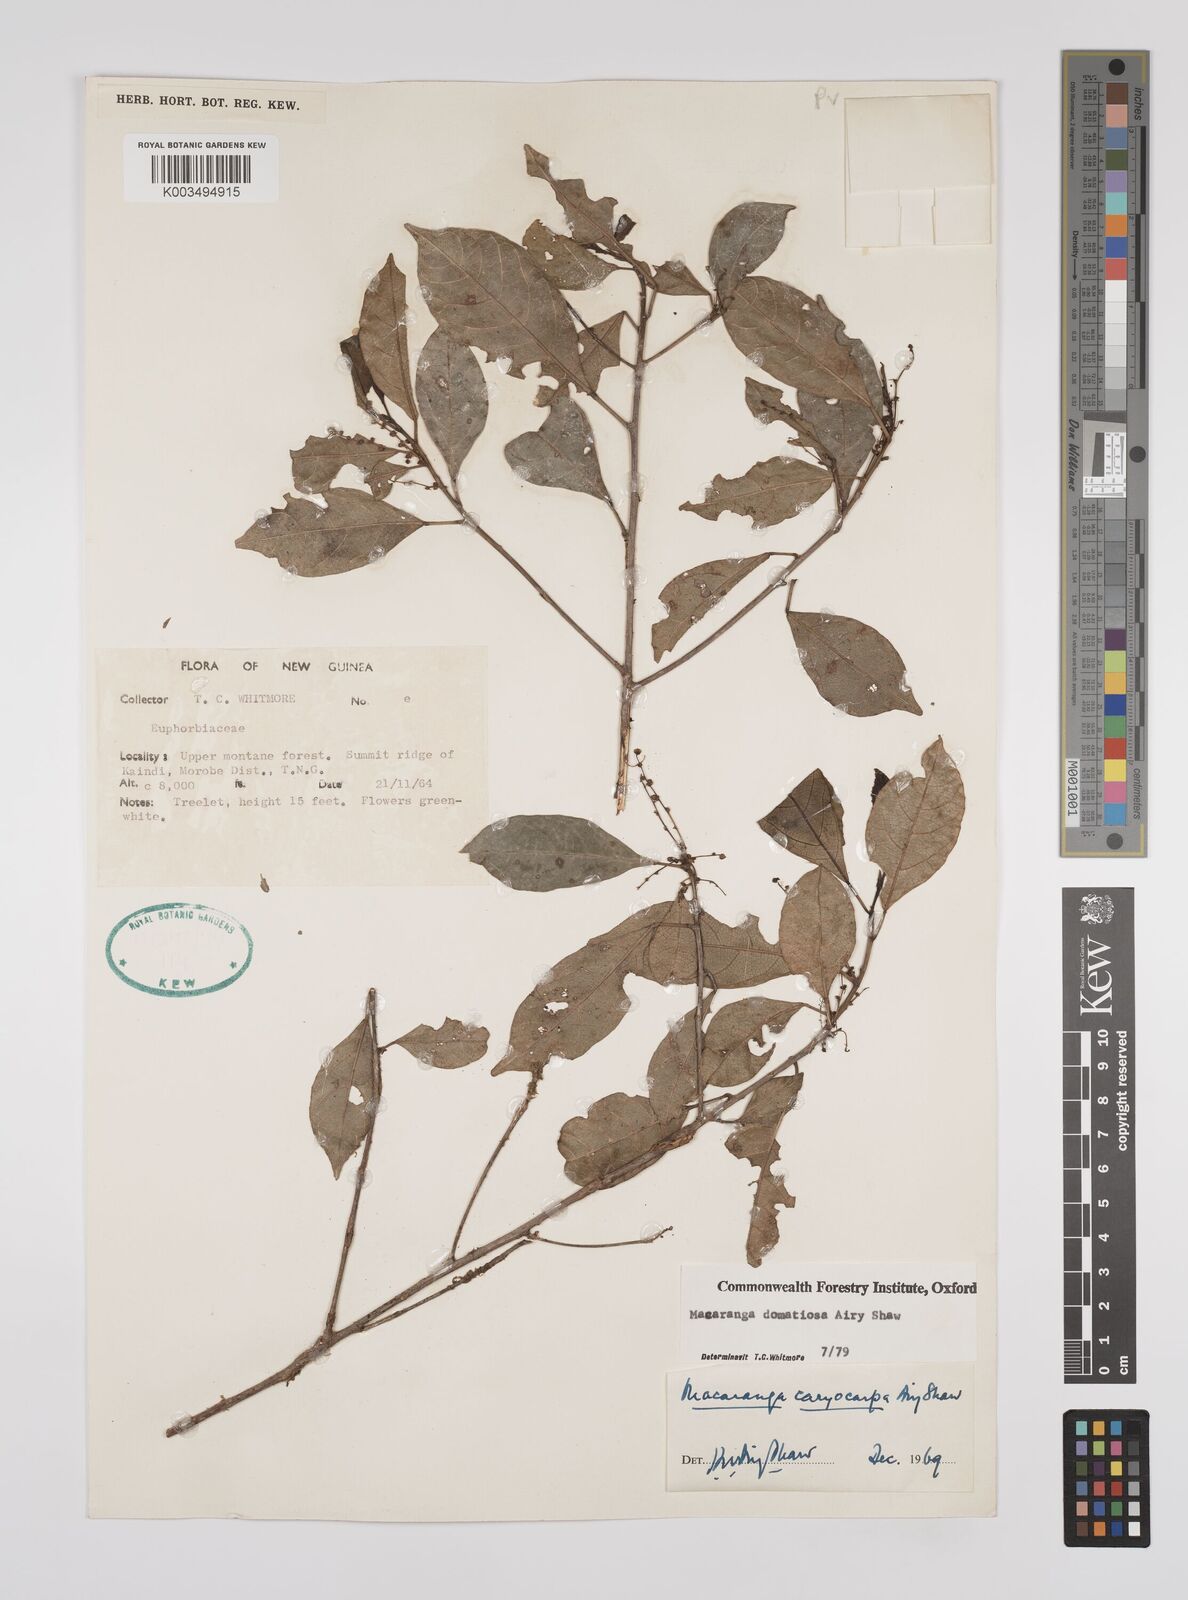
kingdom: Plantae
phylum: Tracheophyta
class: Magnoliopsida
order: Malpighiales
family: Euphorbiaceae
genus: Macaranga
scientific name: Macaranga domatiosa
